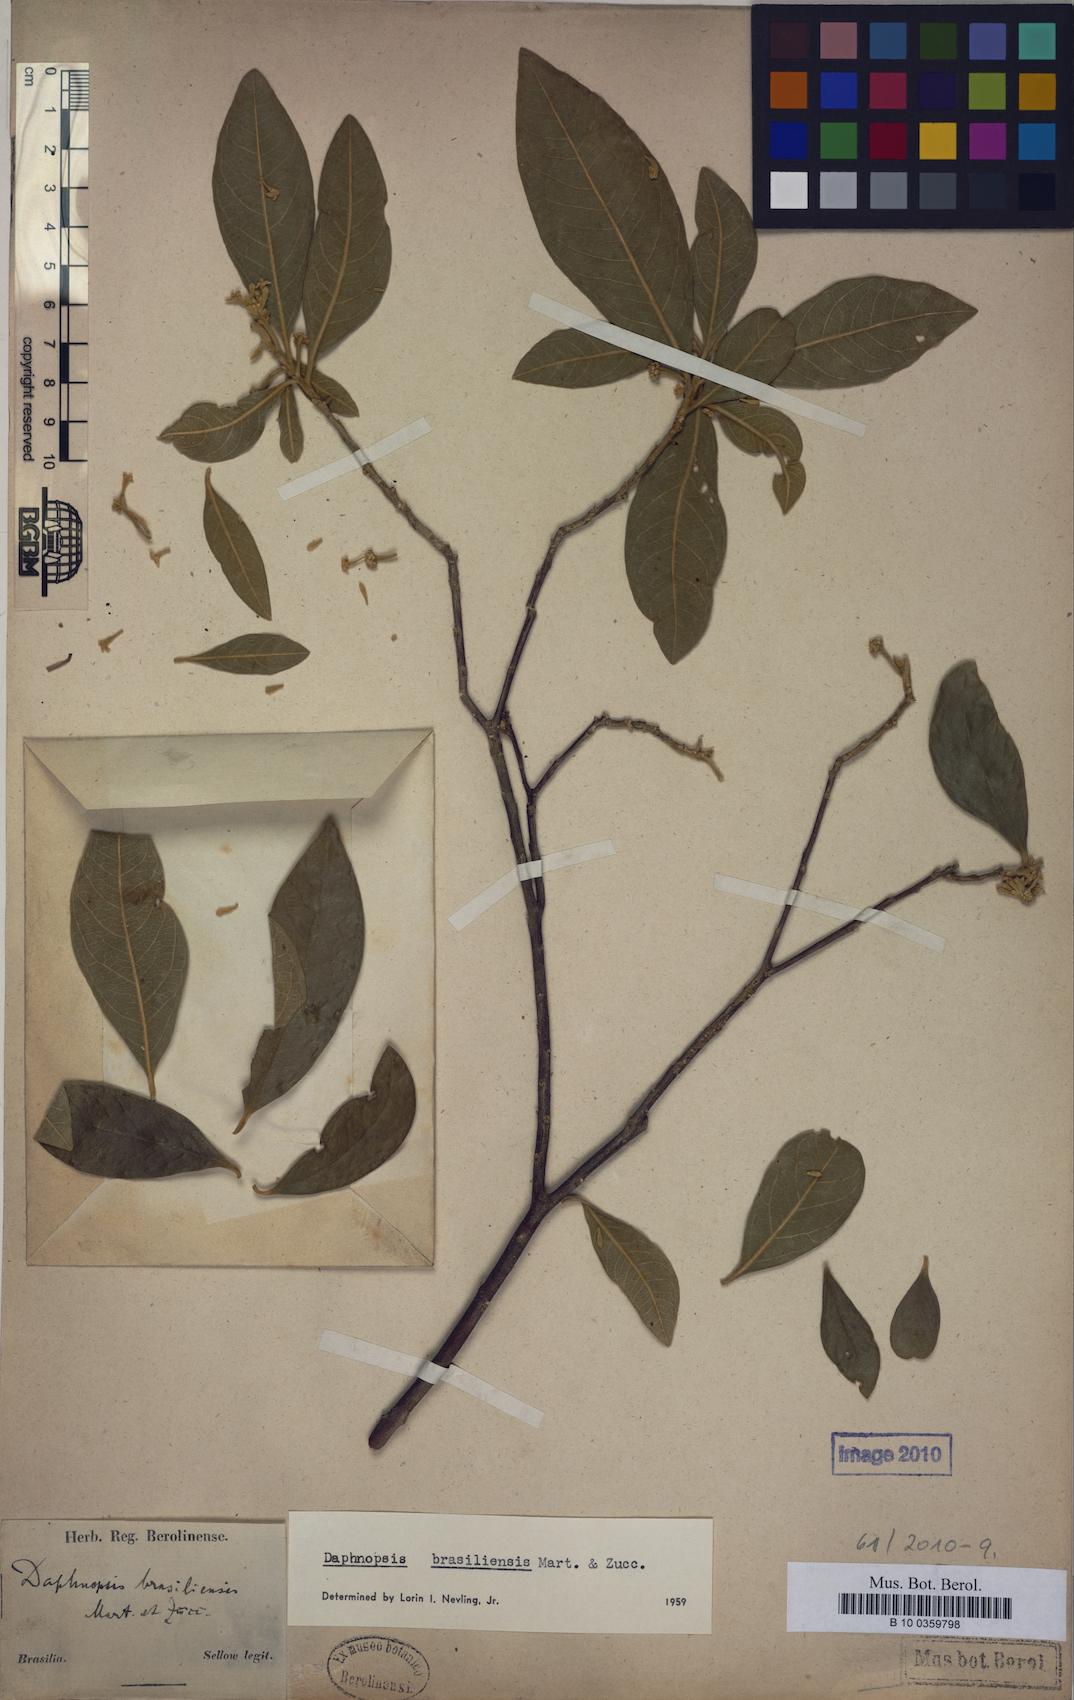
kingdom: Plantae
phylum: Tracheophyta
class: Magnoliopsida
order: Malvales
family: Thymelaeaceae
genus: Daphnopsis
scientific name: Daphnopsis brasiliensis
